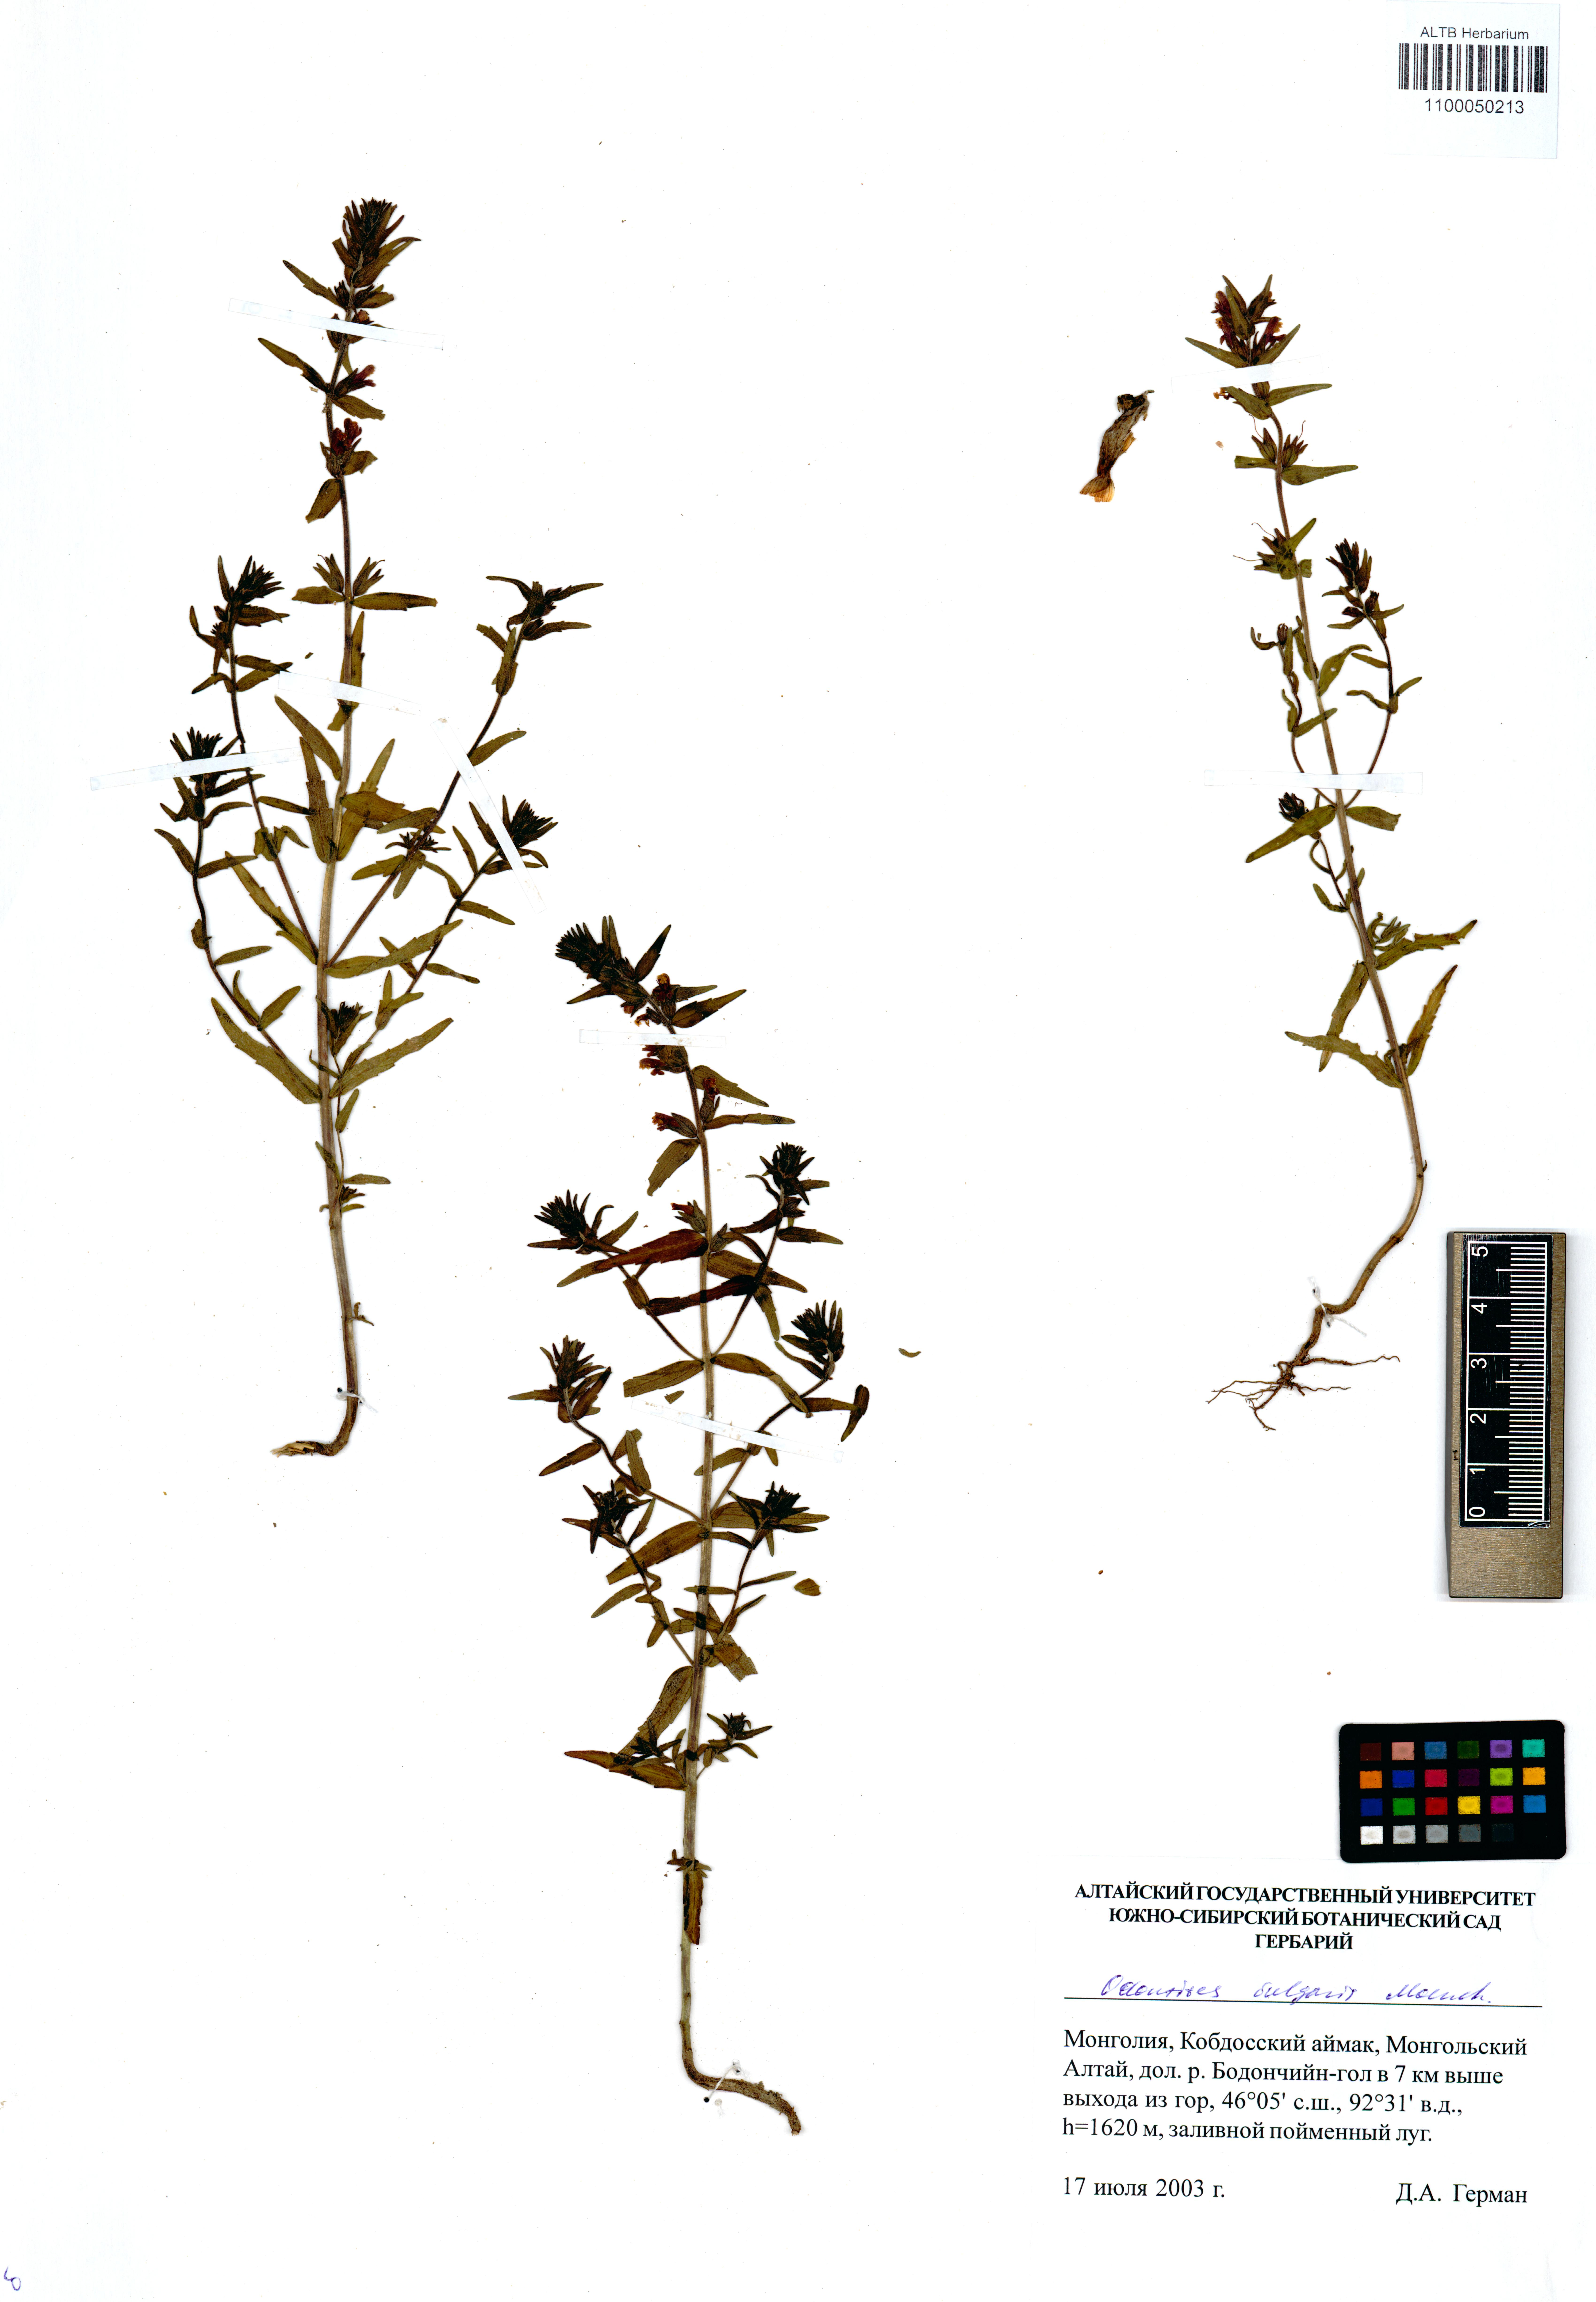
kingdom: Plantae
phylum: Tracheophyta
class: Magnoliopsida
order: Lamiales
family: Orobanchaceae
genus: Odontites
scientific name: Odontites vulgaris
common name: Broomrape
